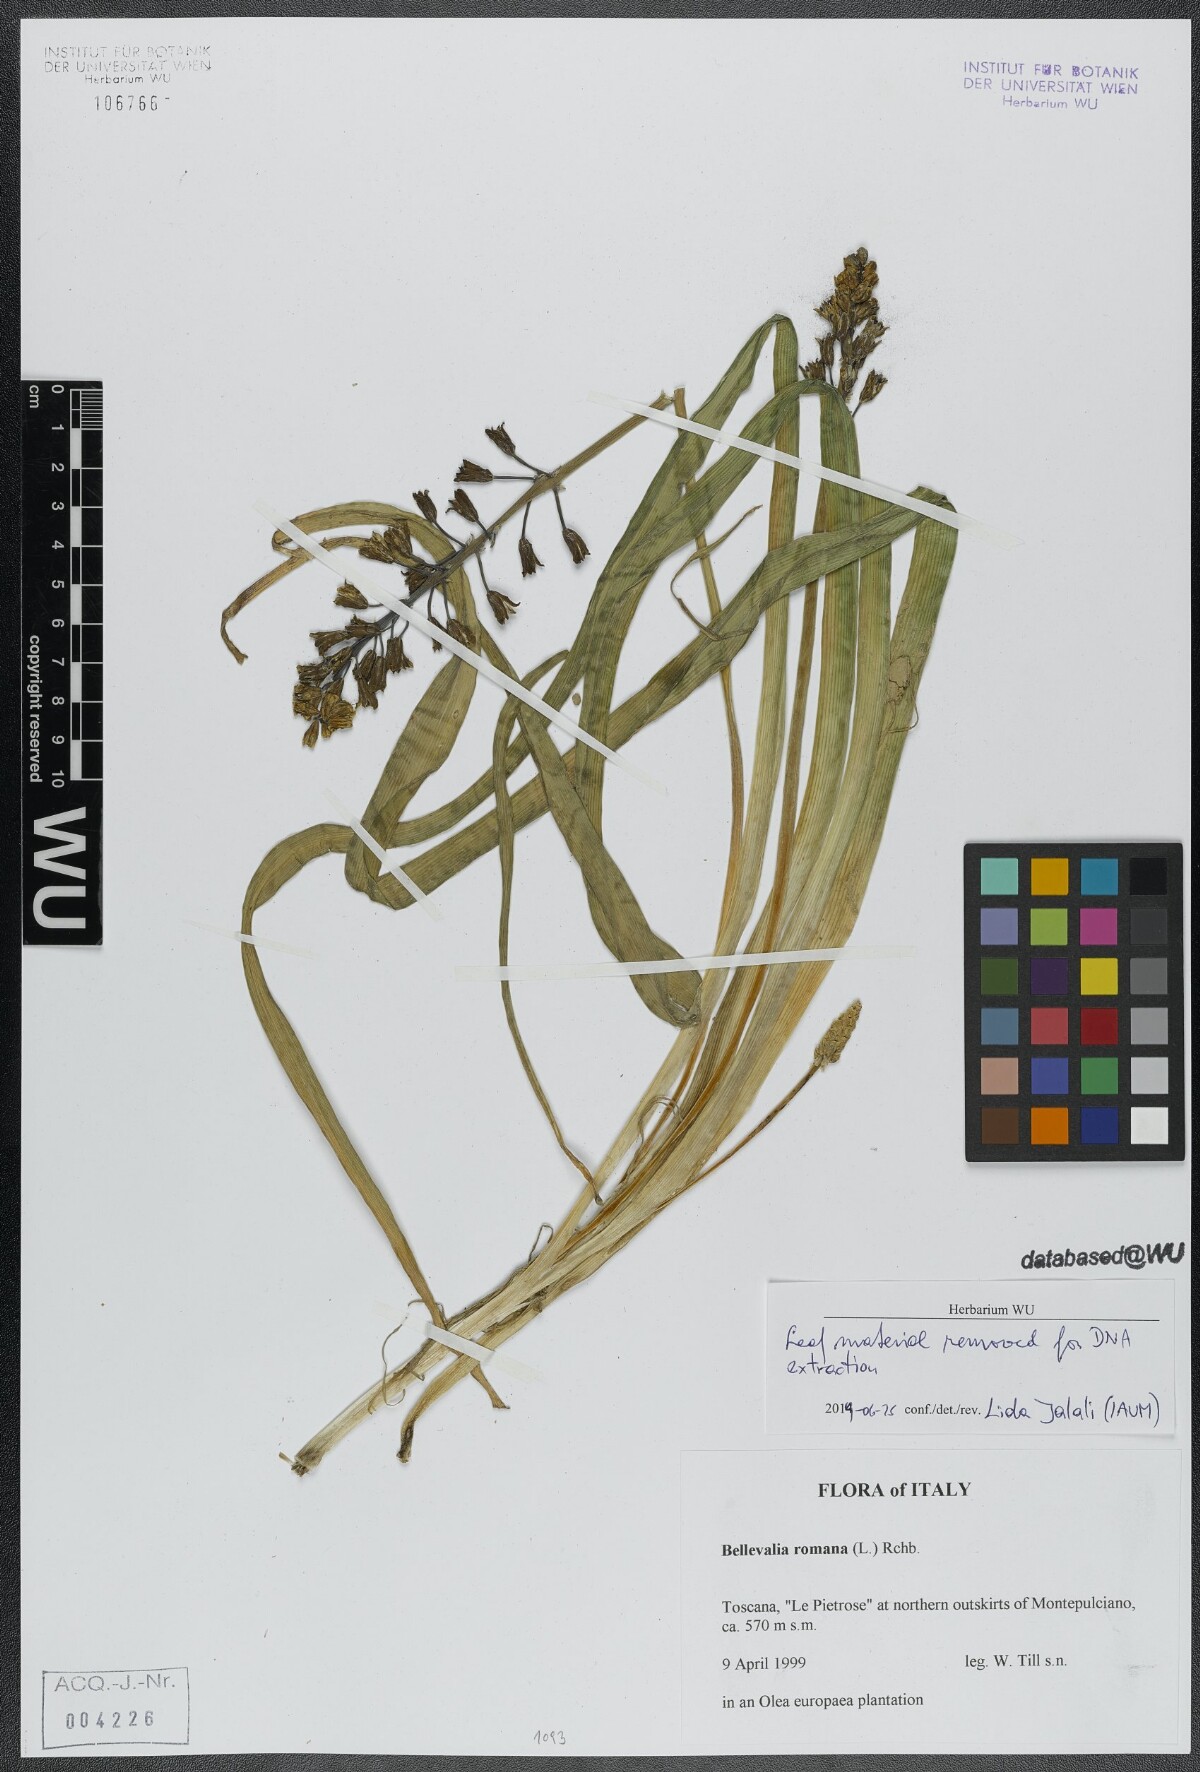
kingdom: Plantae
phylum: Tracheophyta
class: Liliopsida
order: Asparagales
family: Asparagaceae
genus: Bellevalia
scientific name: Bellevalia romana
